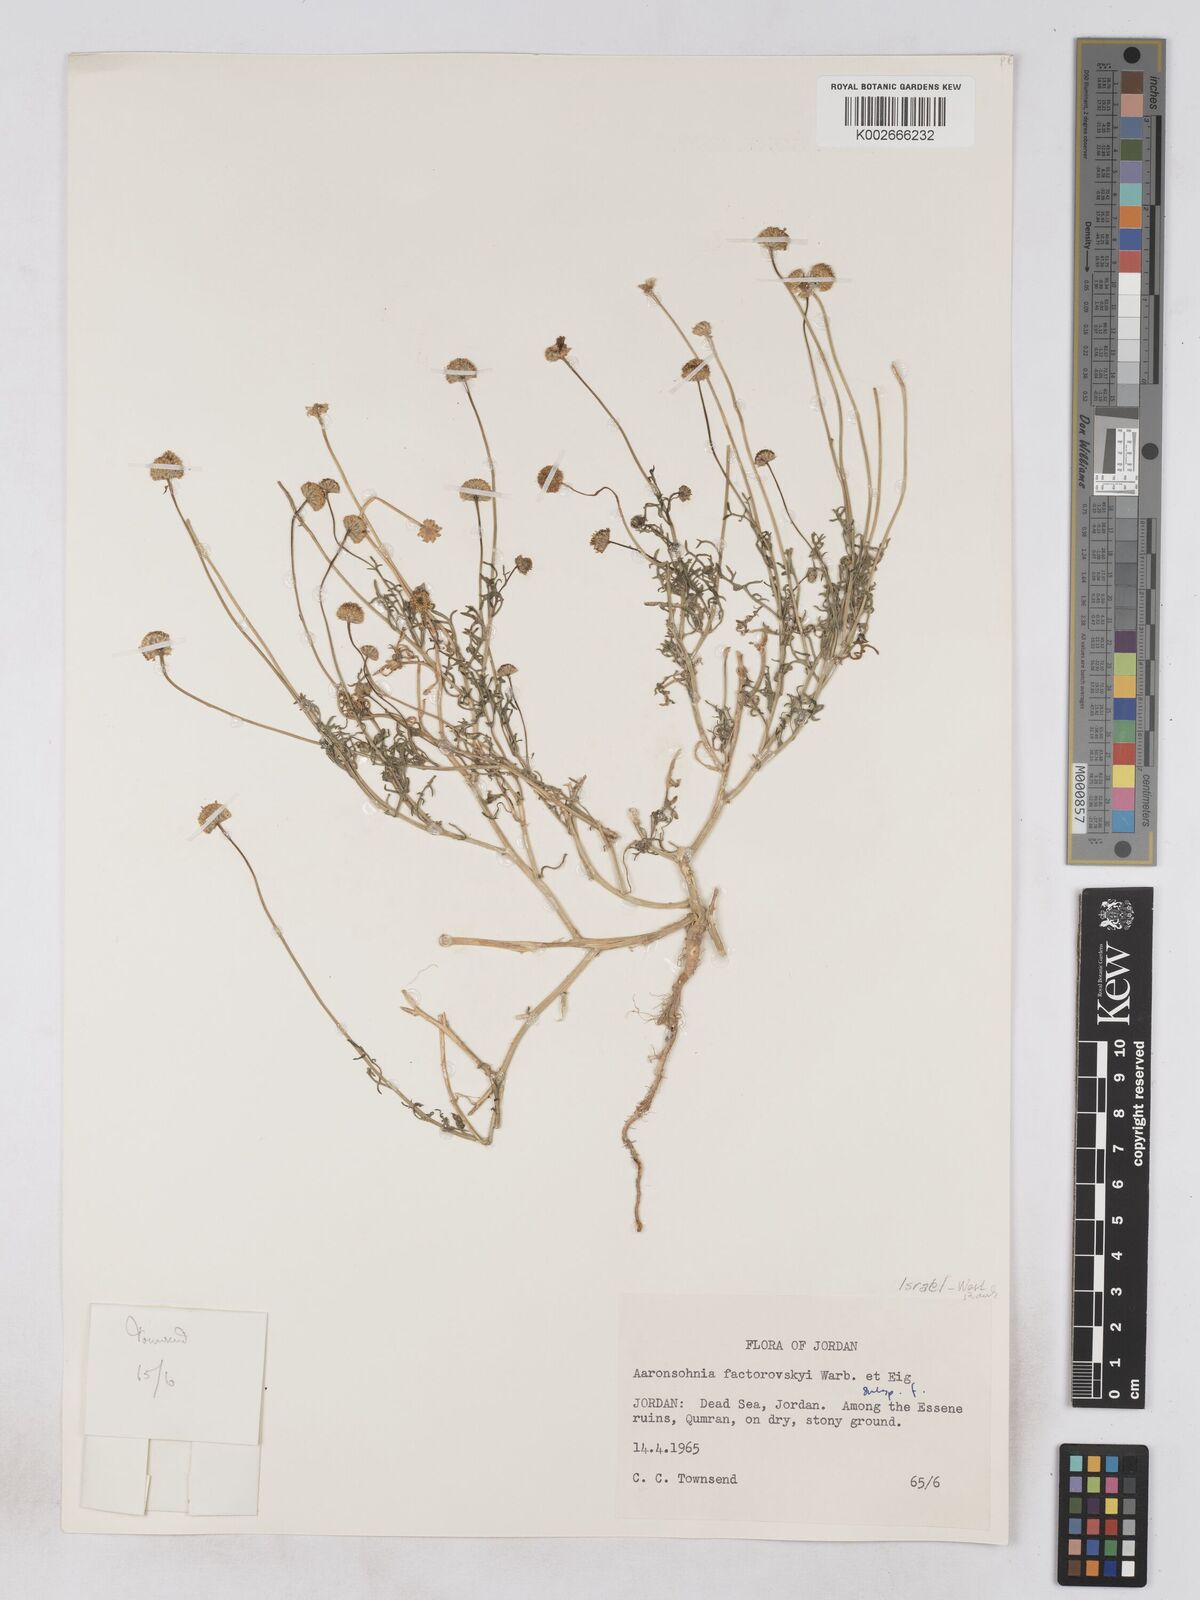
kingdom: Plantae
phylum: Tracheophyta
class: Magnoliopsida
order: Asterales
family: Asteraceae
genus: Otoglyphis
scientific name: Otoglyphis factorovskyi
